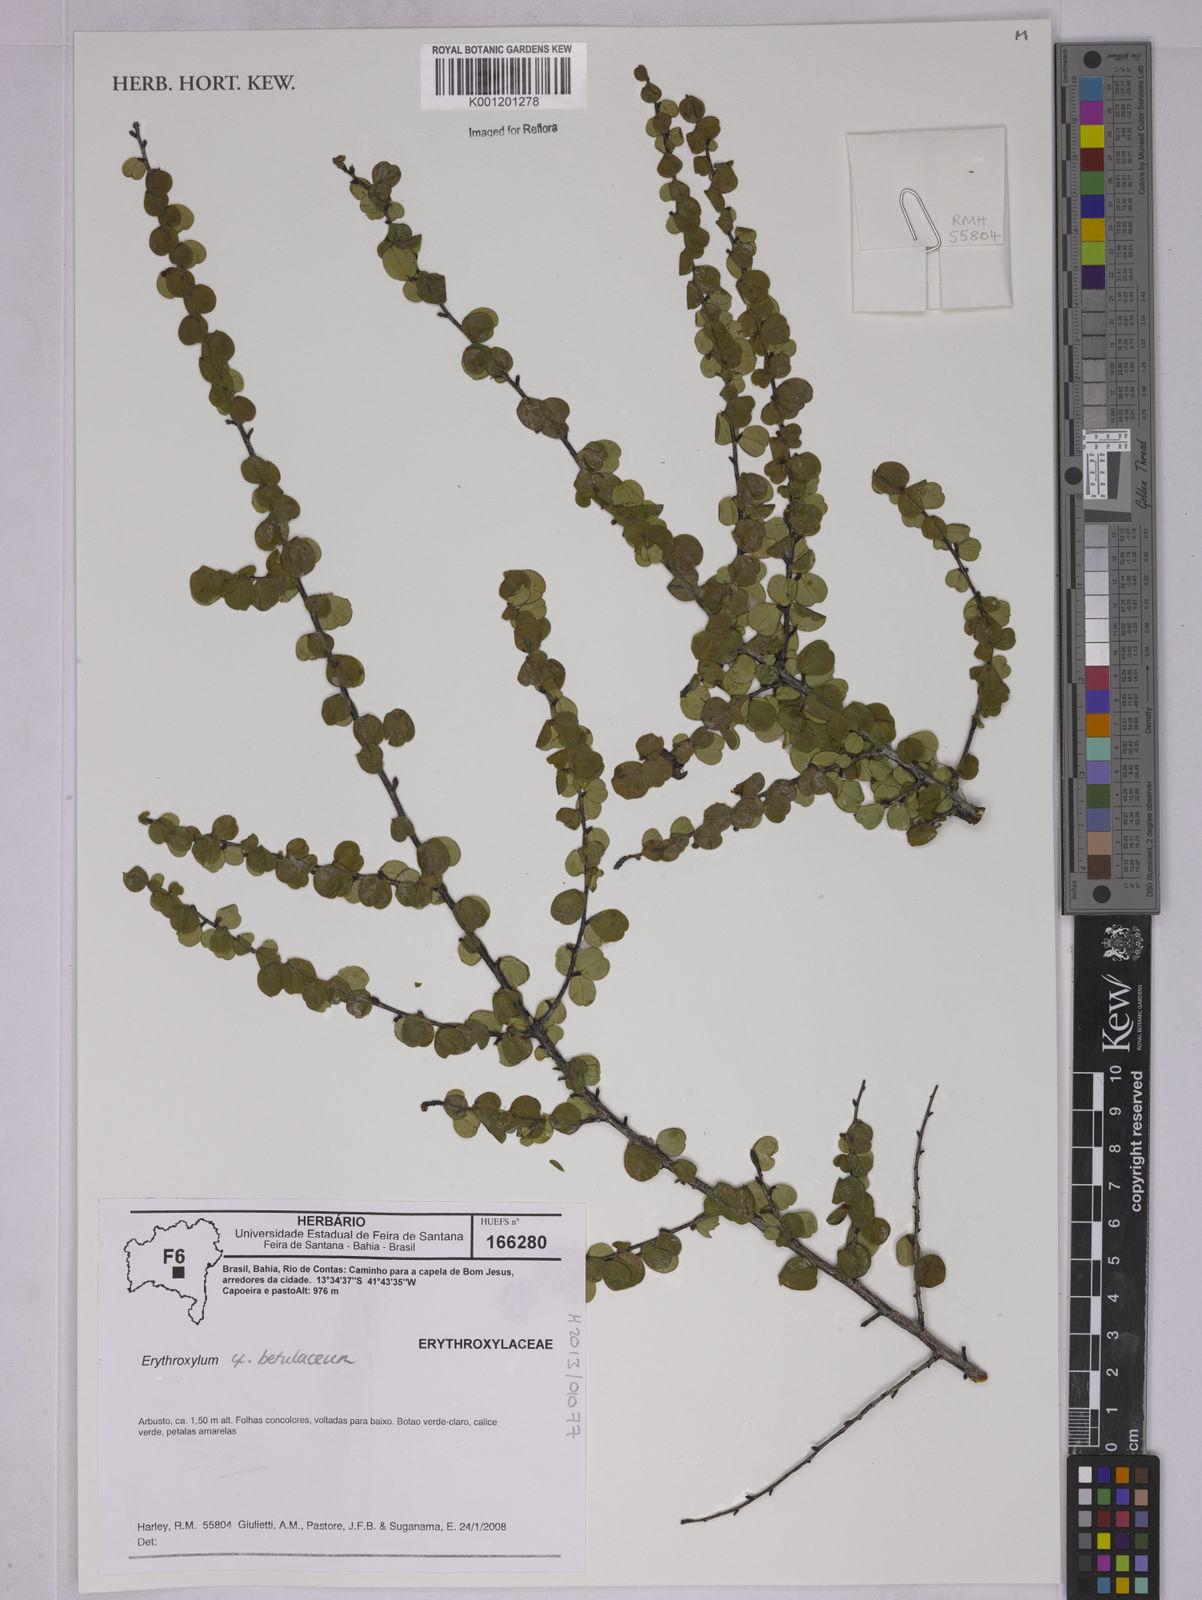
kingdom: Plantae
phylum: Tracheophyta
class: Magnoliopsida
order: Malpighiales
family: Erythroxylaceae
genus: Erythroxylum
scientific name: Erythroxylum betulaceum
